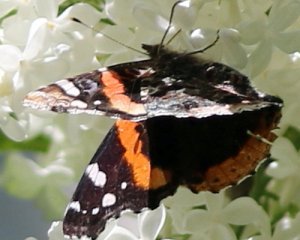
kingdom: Animalia
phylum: Arthropoda
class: Insecta
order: Lepidoptera
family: Nymphalidae
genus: Vanessa
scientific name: Vanessa atalanta
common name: Red Admiral
